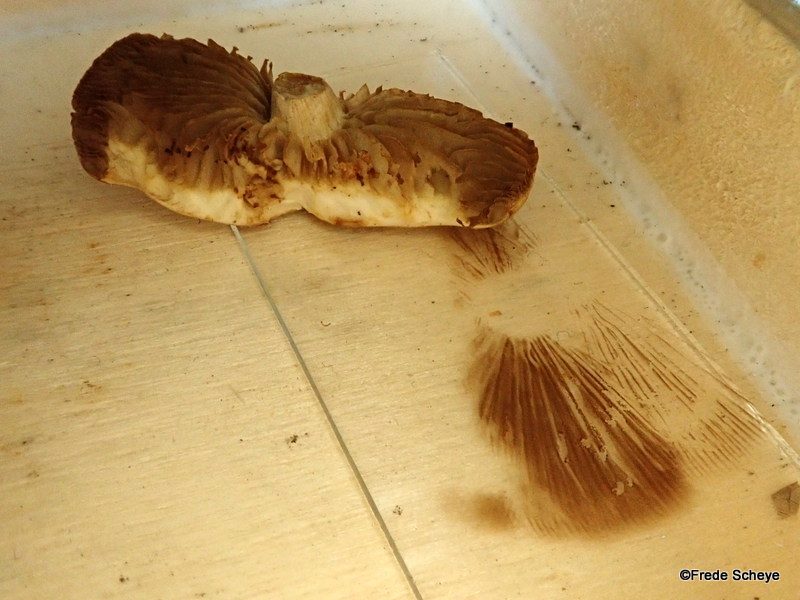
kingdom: Fungi
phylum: Basidiomycota
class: Agaricomycetes
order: Agaricales
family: Strophariaceae
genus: Agrocybe
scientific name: Agrocybe praecox
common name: tidlig agerhat
